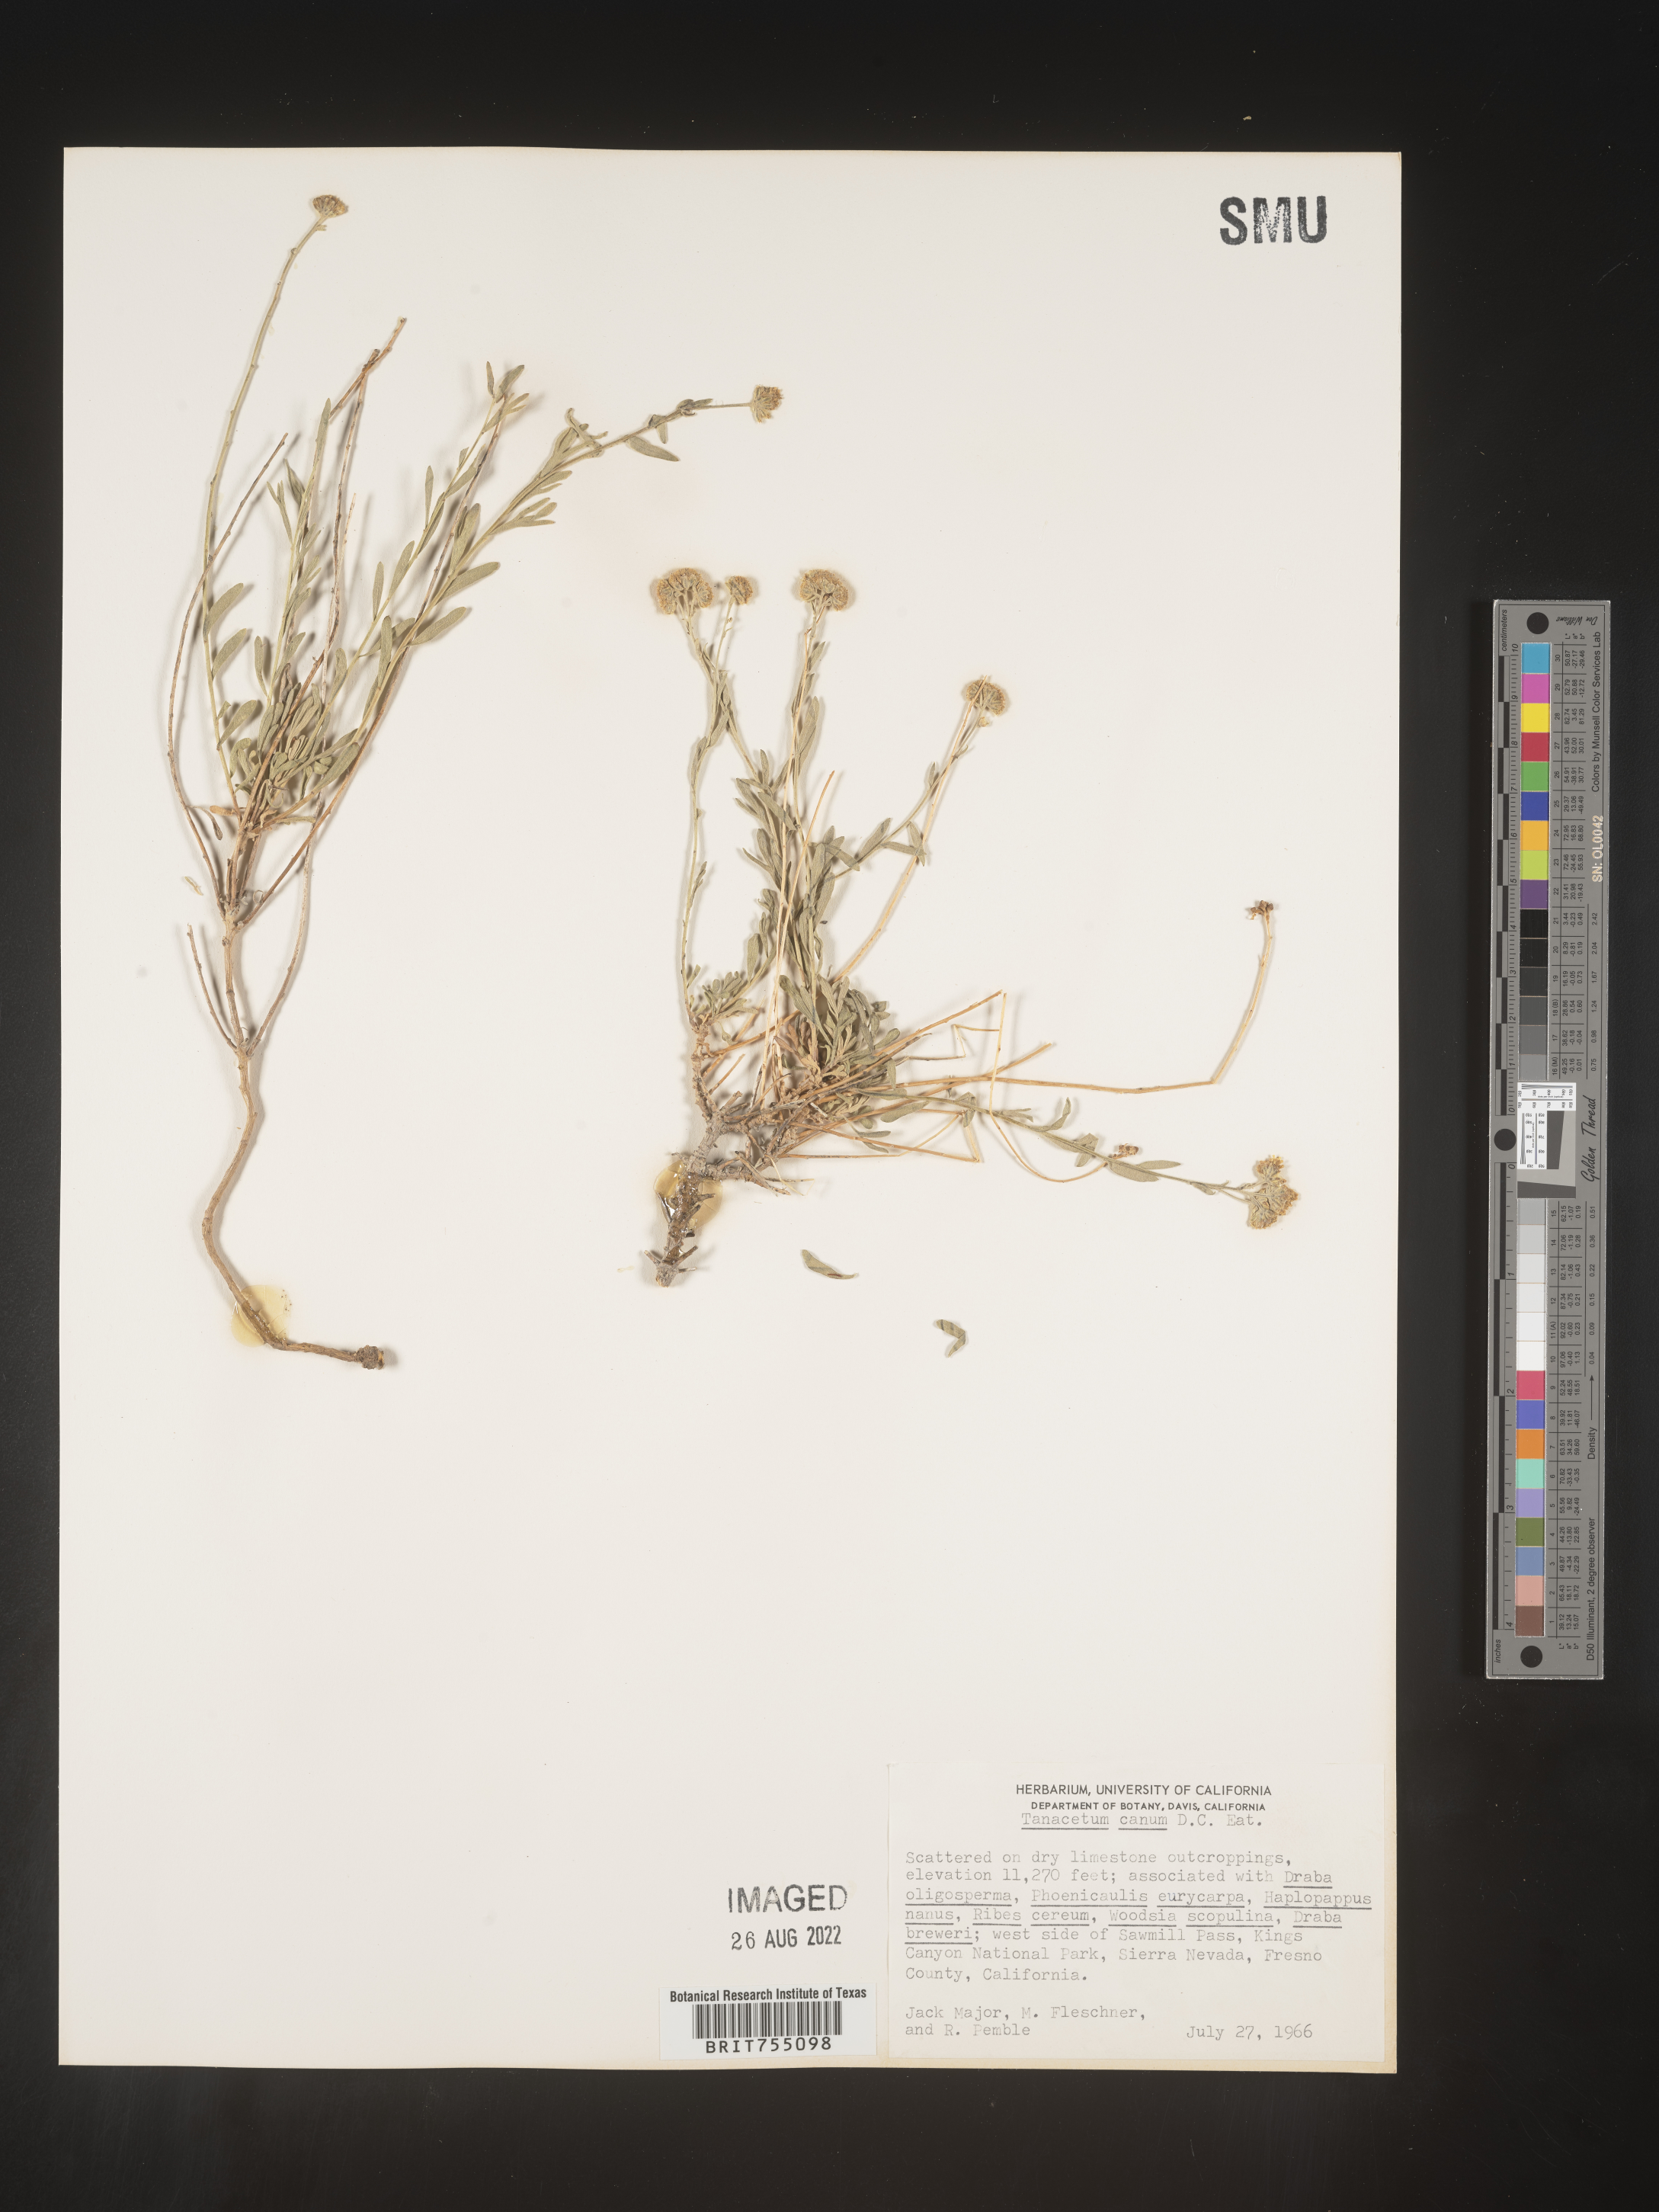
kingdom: Plantae
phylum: Tracheophyta
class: Magnoliopsida
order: Asterales
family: Asteraceae
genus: Tanacetum
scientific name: Tanacetum
